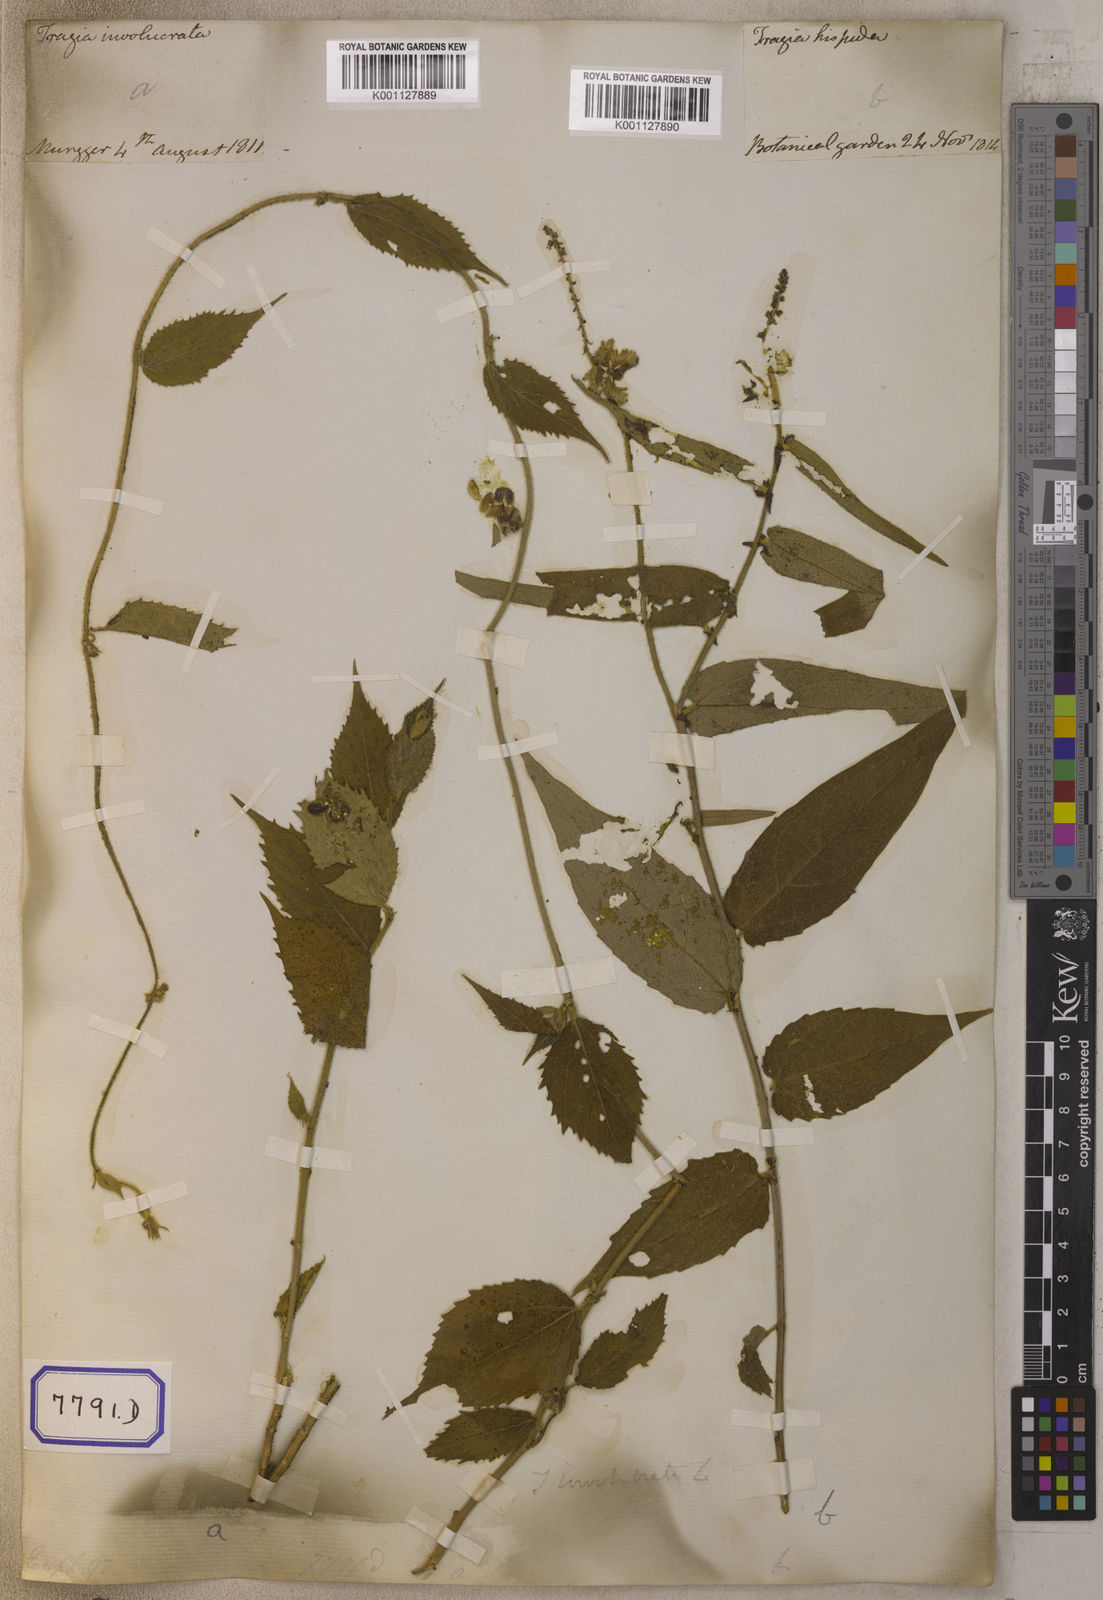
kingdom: Plantae
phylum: Tracheophyta
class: Magnoliopsida
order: Malpighiales
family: Euphorbiaceae
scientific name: Euphorbiaceae
